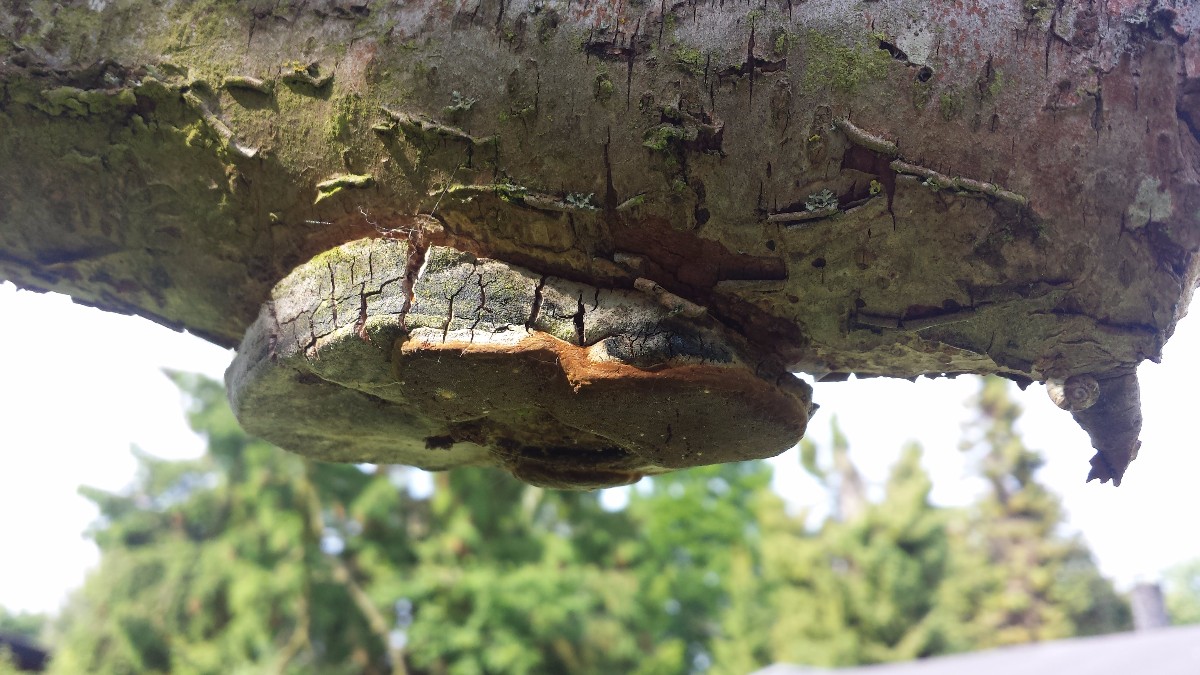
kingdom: Fungi
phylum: Basidiomycota
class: Agaricomycetes
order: Hymenochaetales
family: Hymenochaetaceae
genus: Phellinus
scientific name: Phellinus pomaceus
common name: blomme-ildporesvamp
